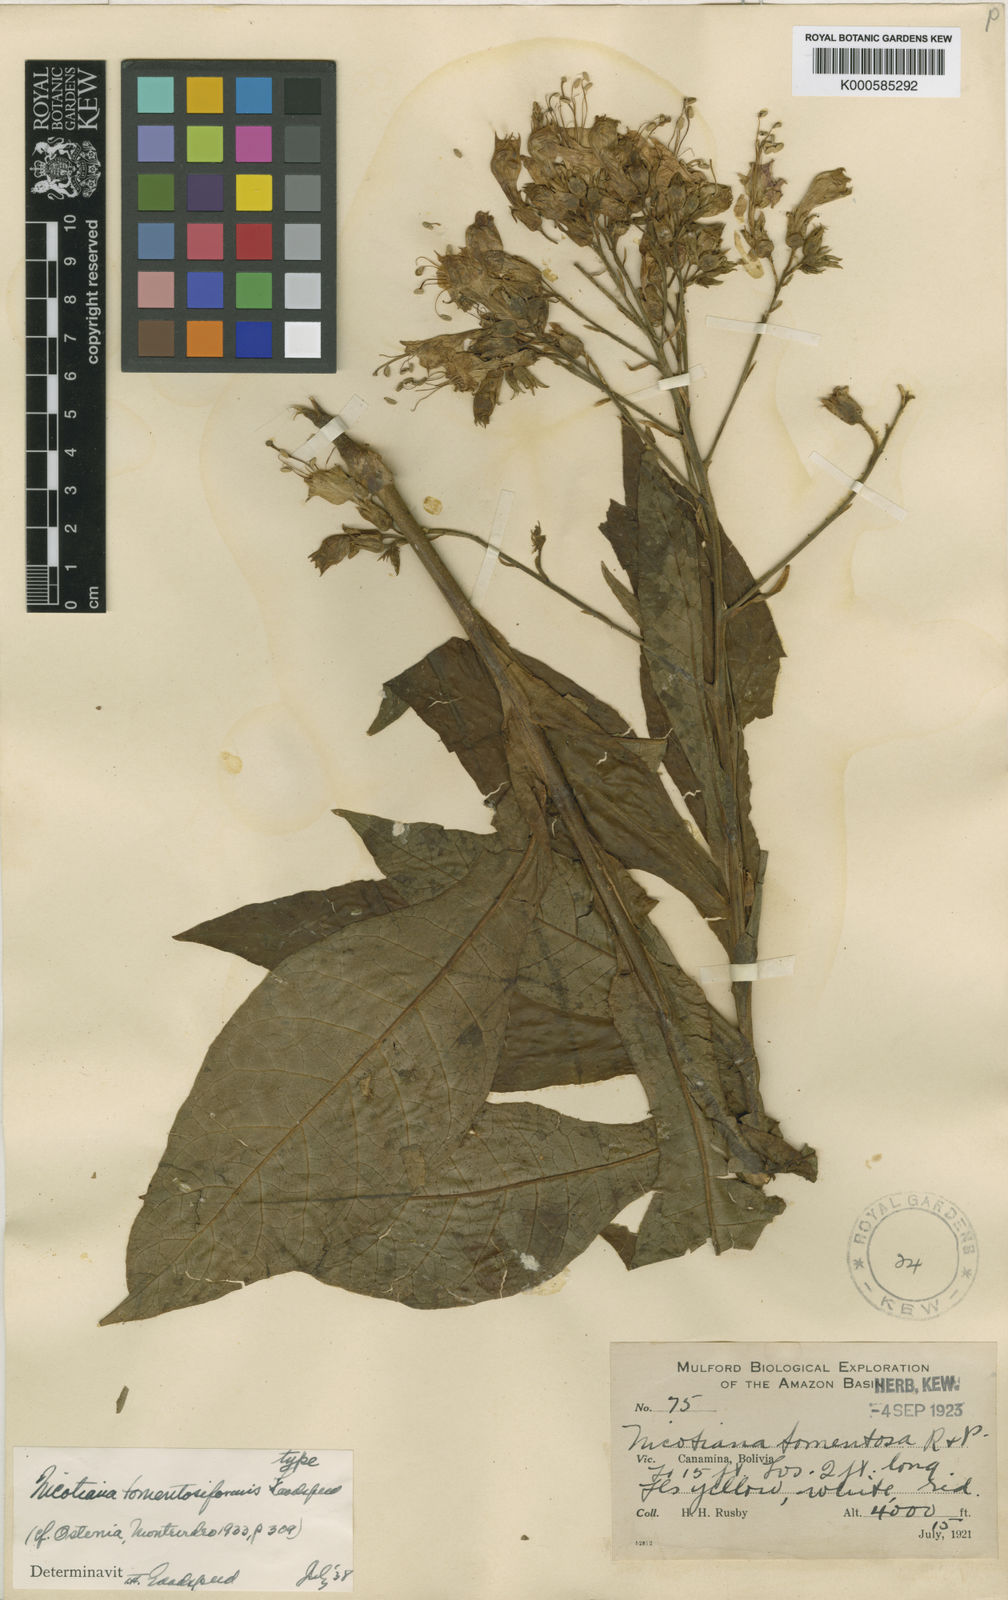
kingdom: Plantae
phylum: Tracheophyta
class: Magnoliopsida
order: Solanales
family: Solanaceae
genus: Nicotiana
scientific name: Nicotiana tomentosiformis
